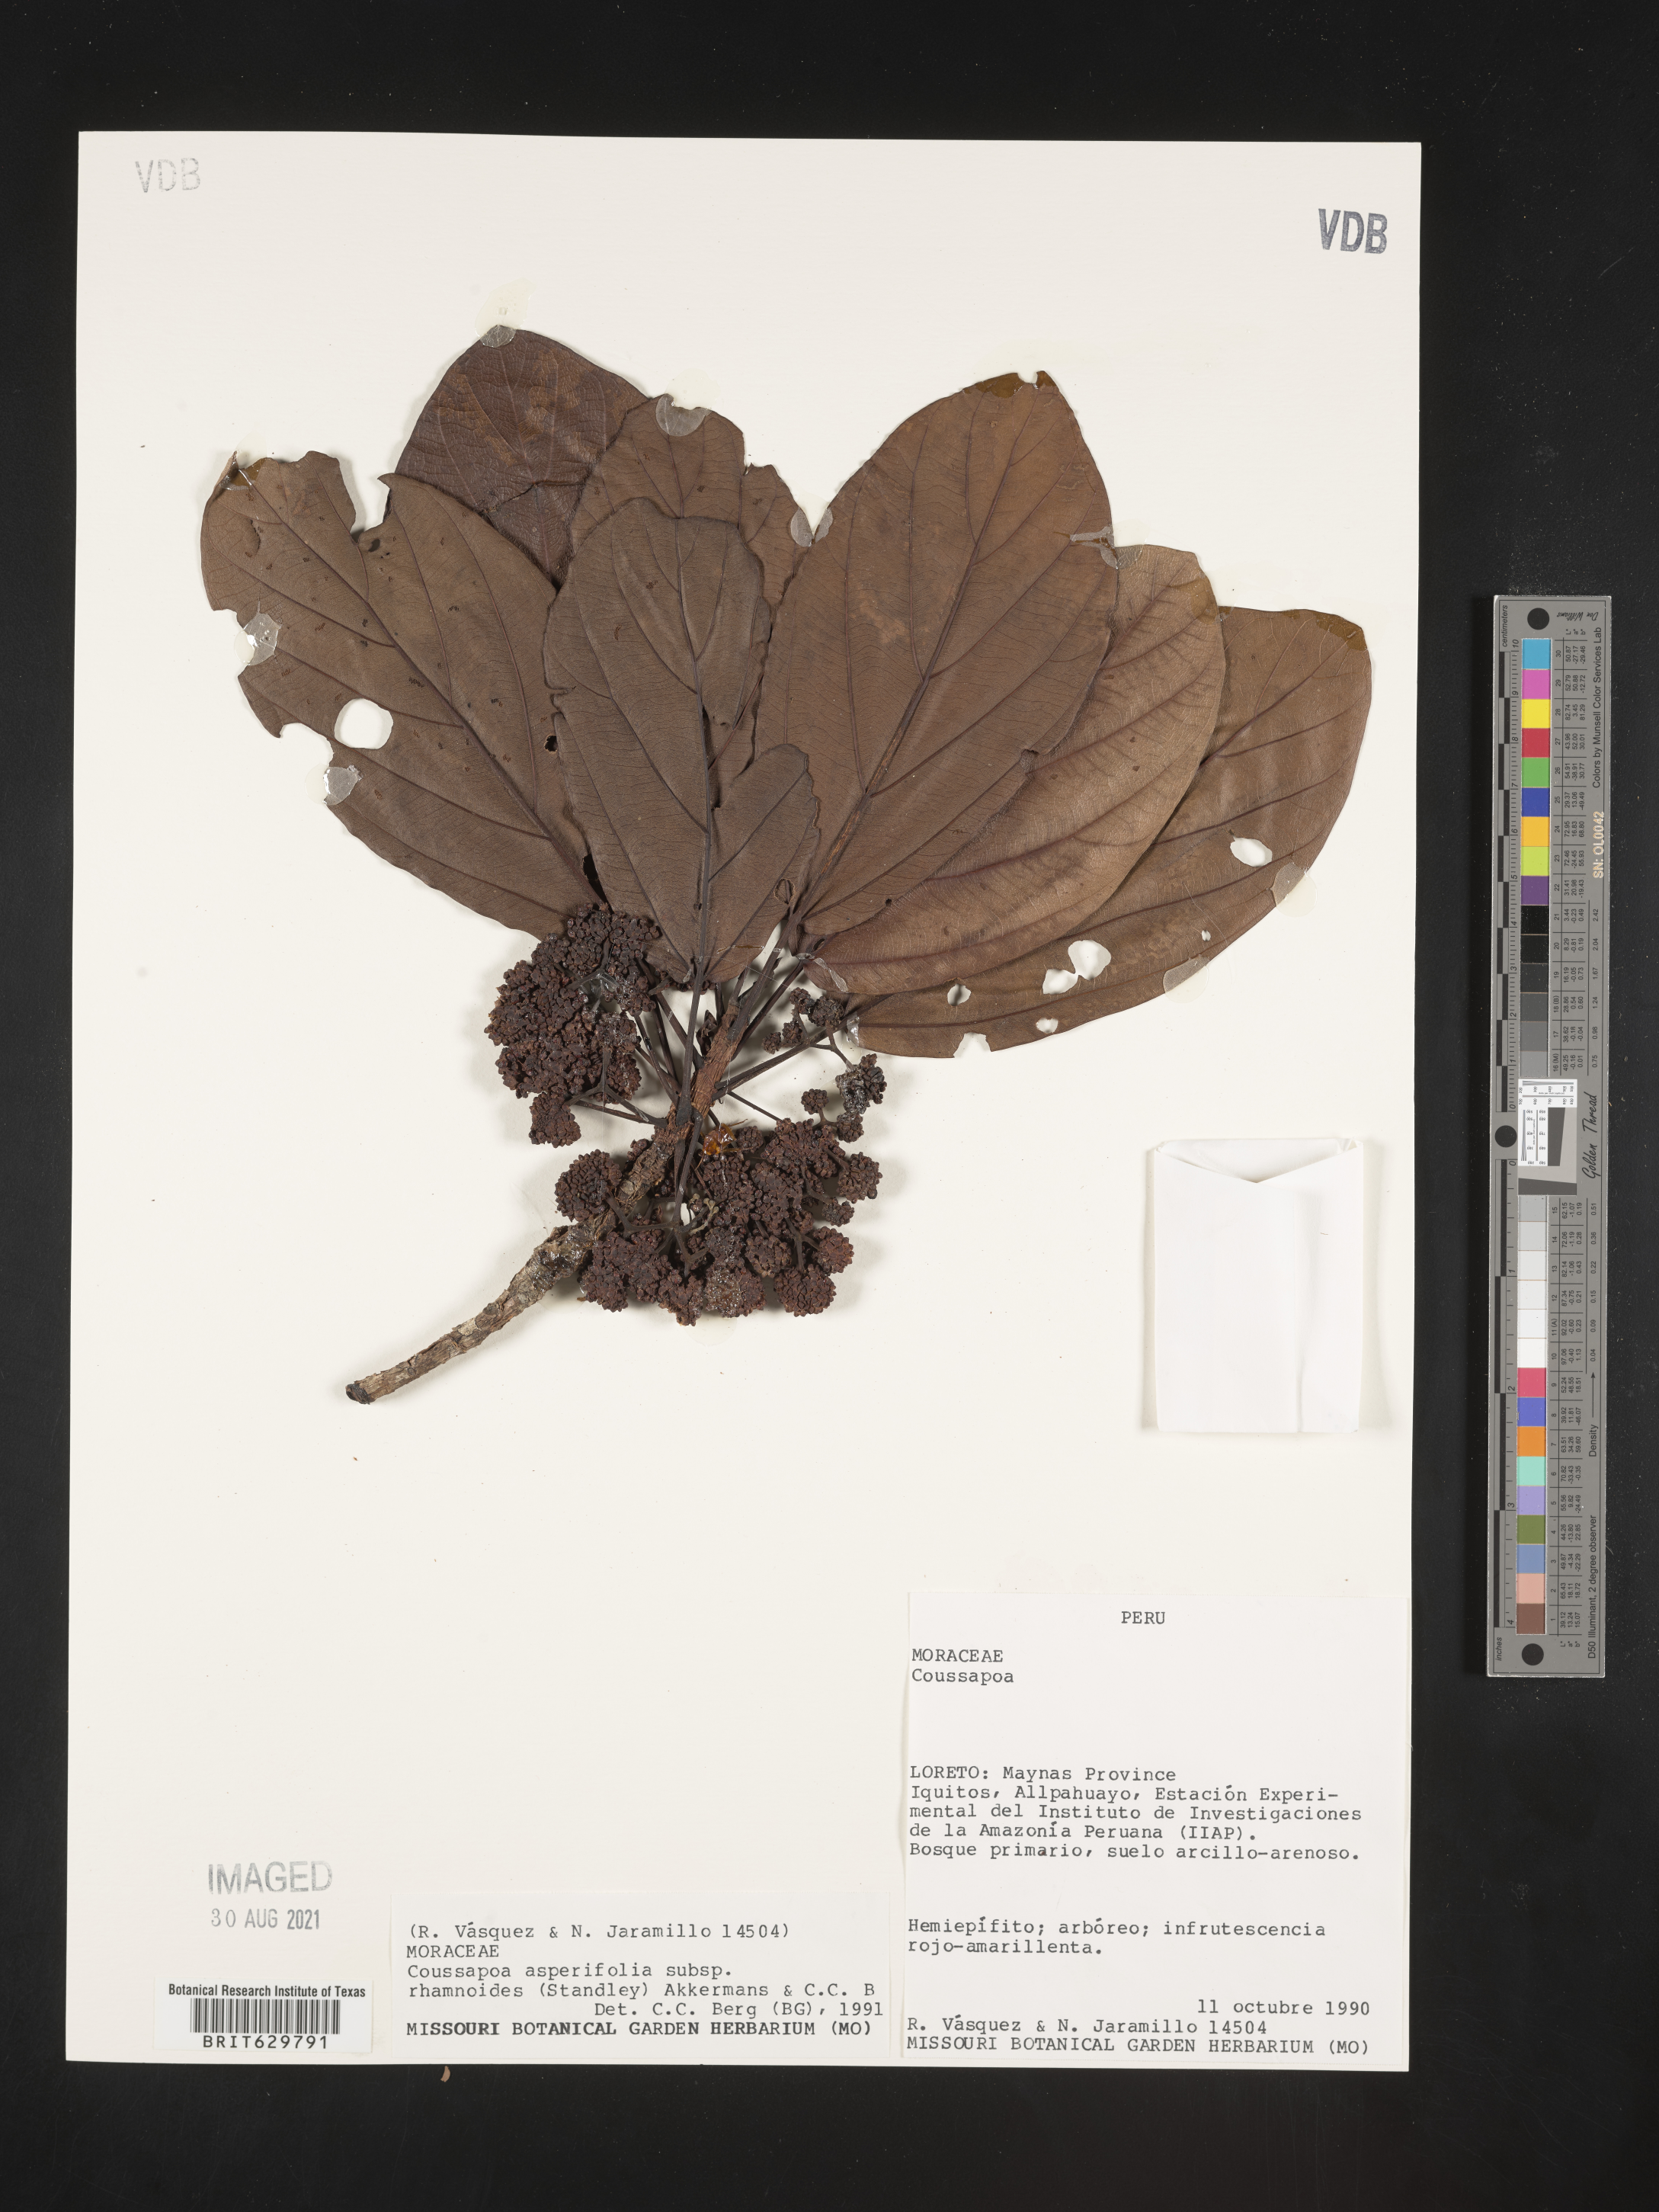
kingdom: Plantae
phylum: Tracheophyta
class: Magnoliopsida
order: Rosales
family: Urticaceae
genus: Coussapoa
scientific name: Coussapoa
